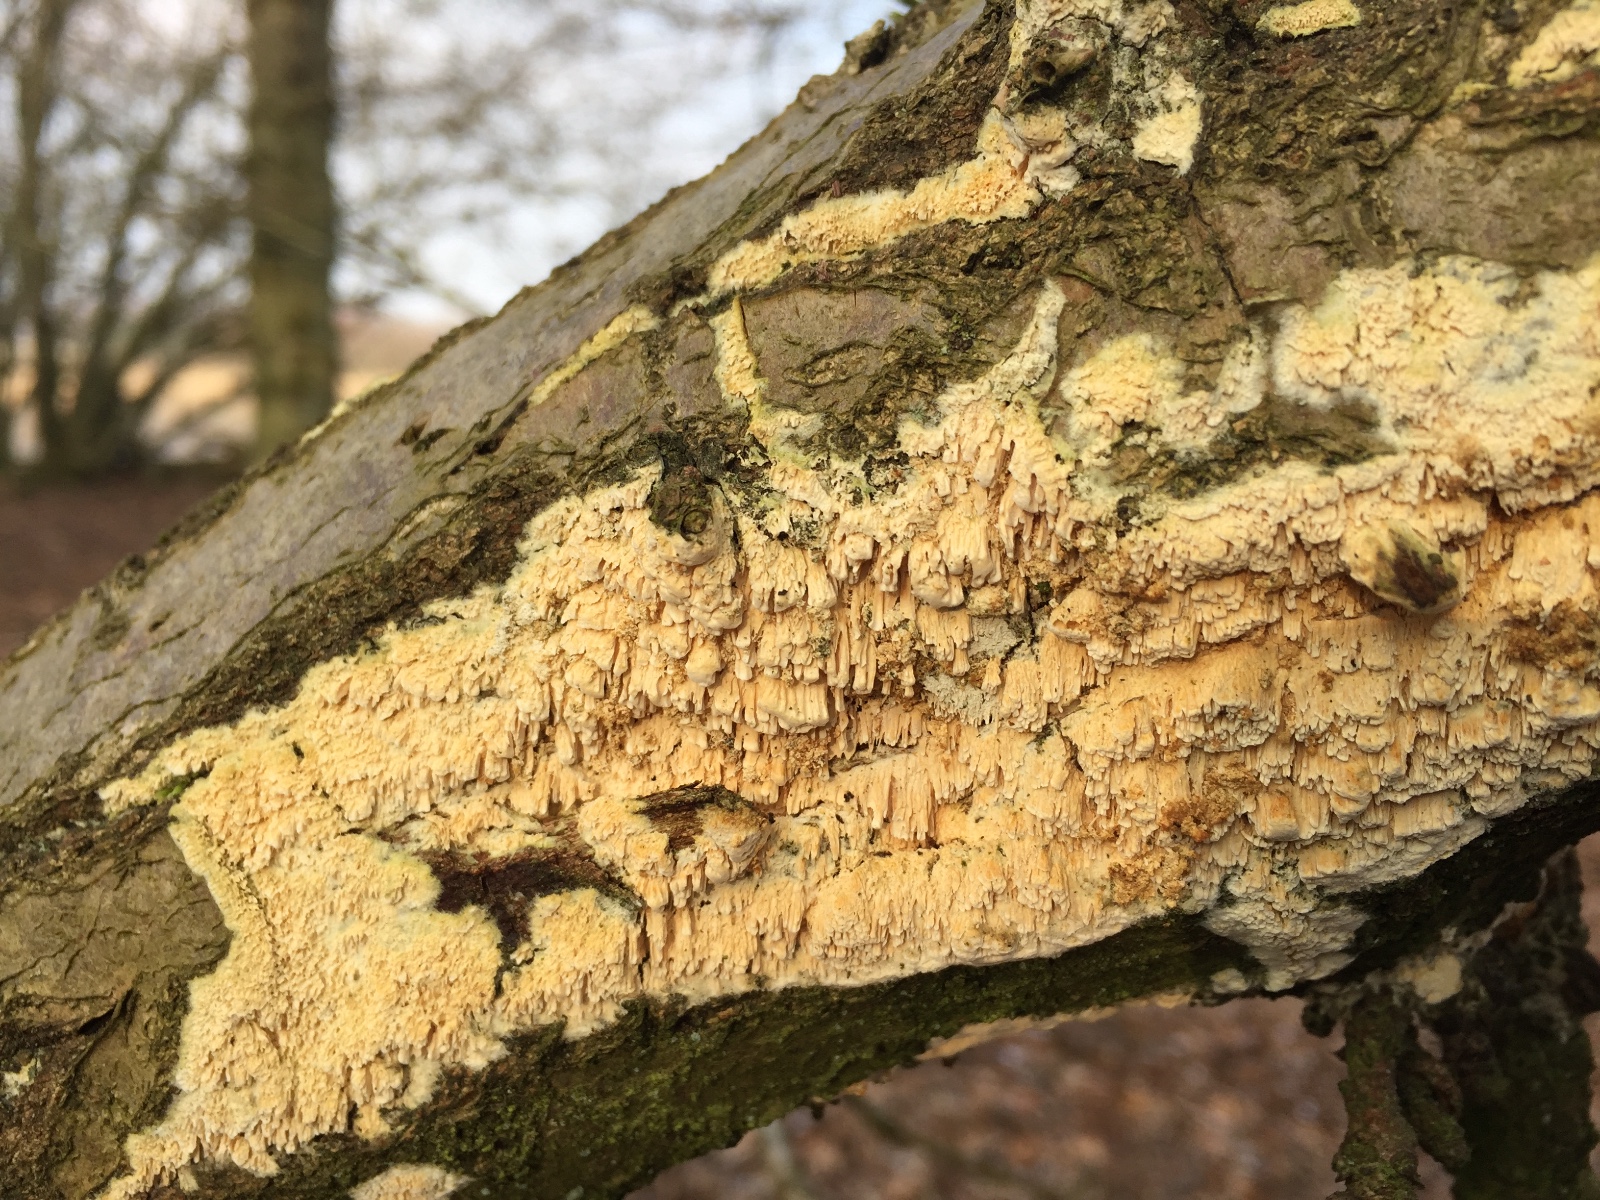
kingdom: Fungi
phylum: Basidiomycota
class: Agaricomycetes
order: Hymenochaetales
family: Schizoporaceae
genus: Xylodon
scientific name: Xylodon radula
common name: grovtandet kalkskind
